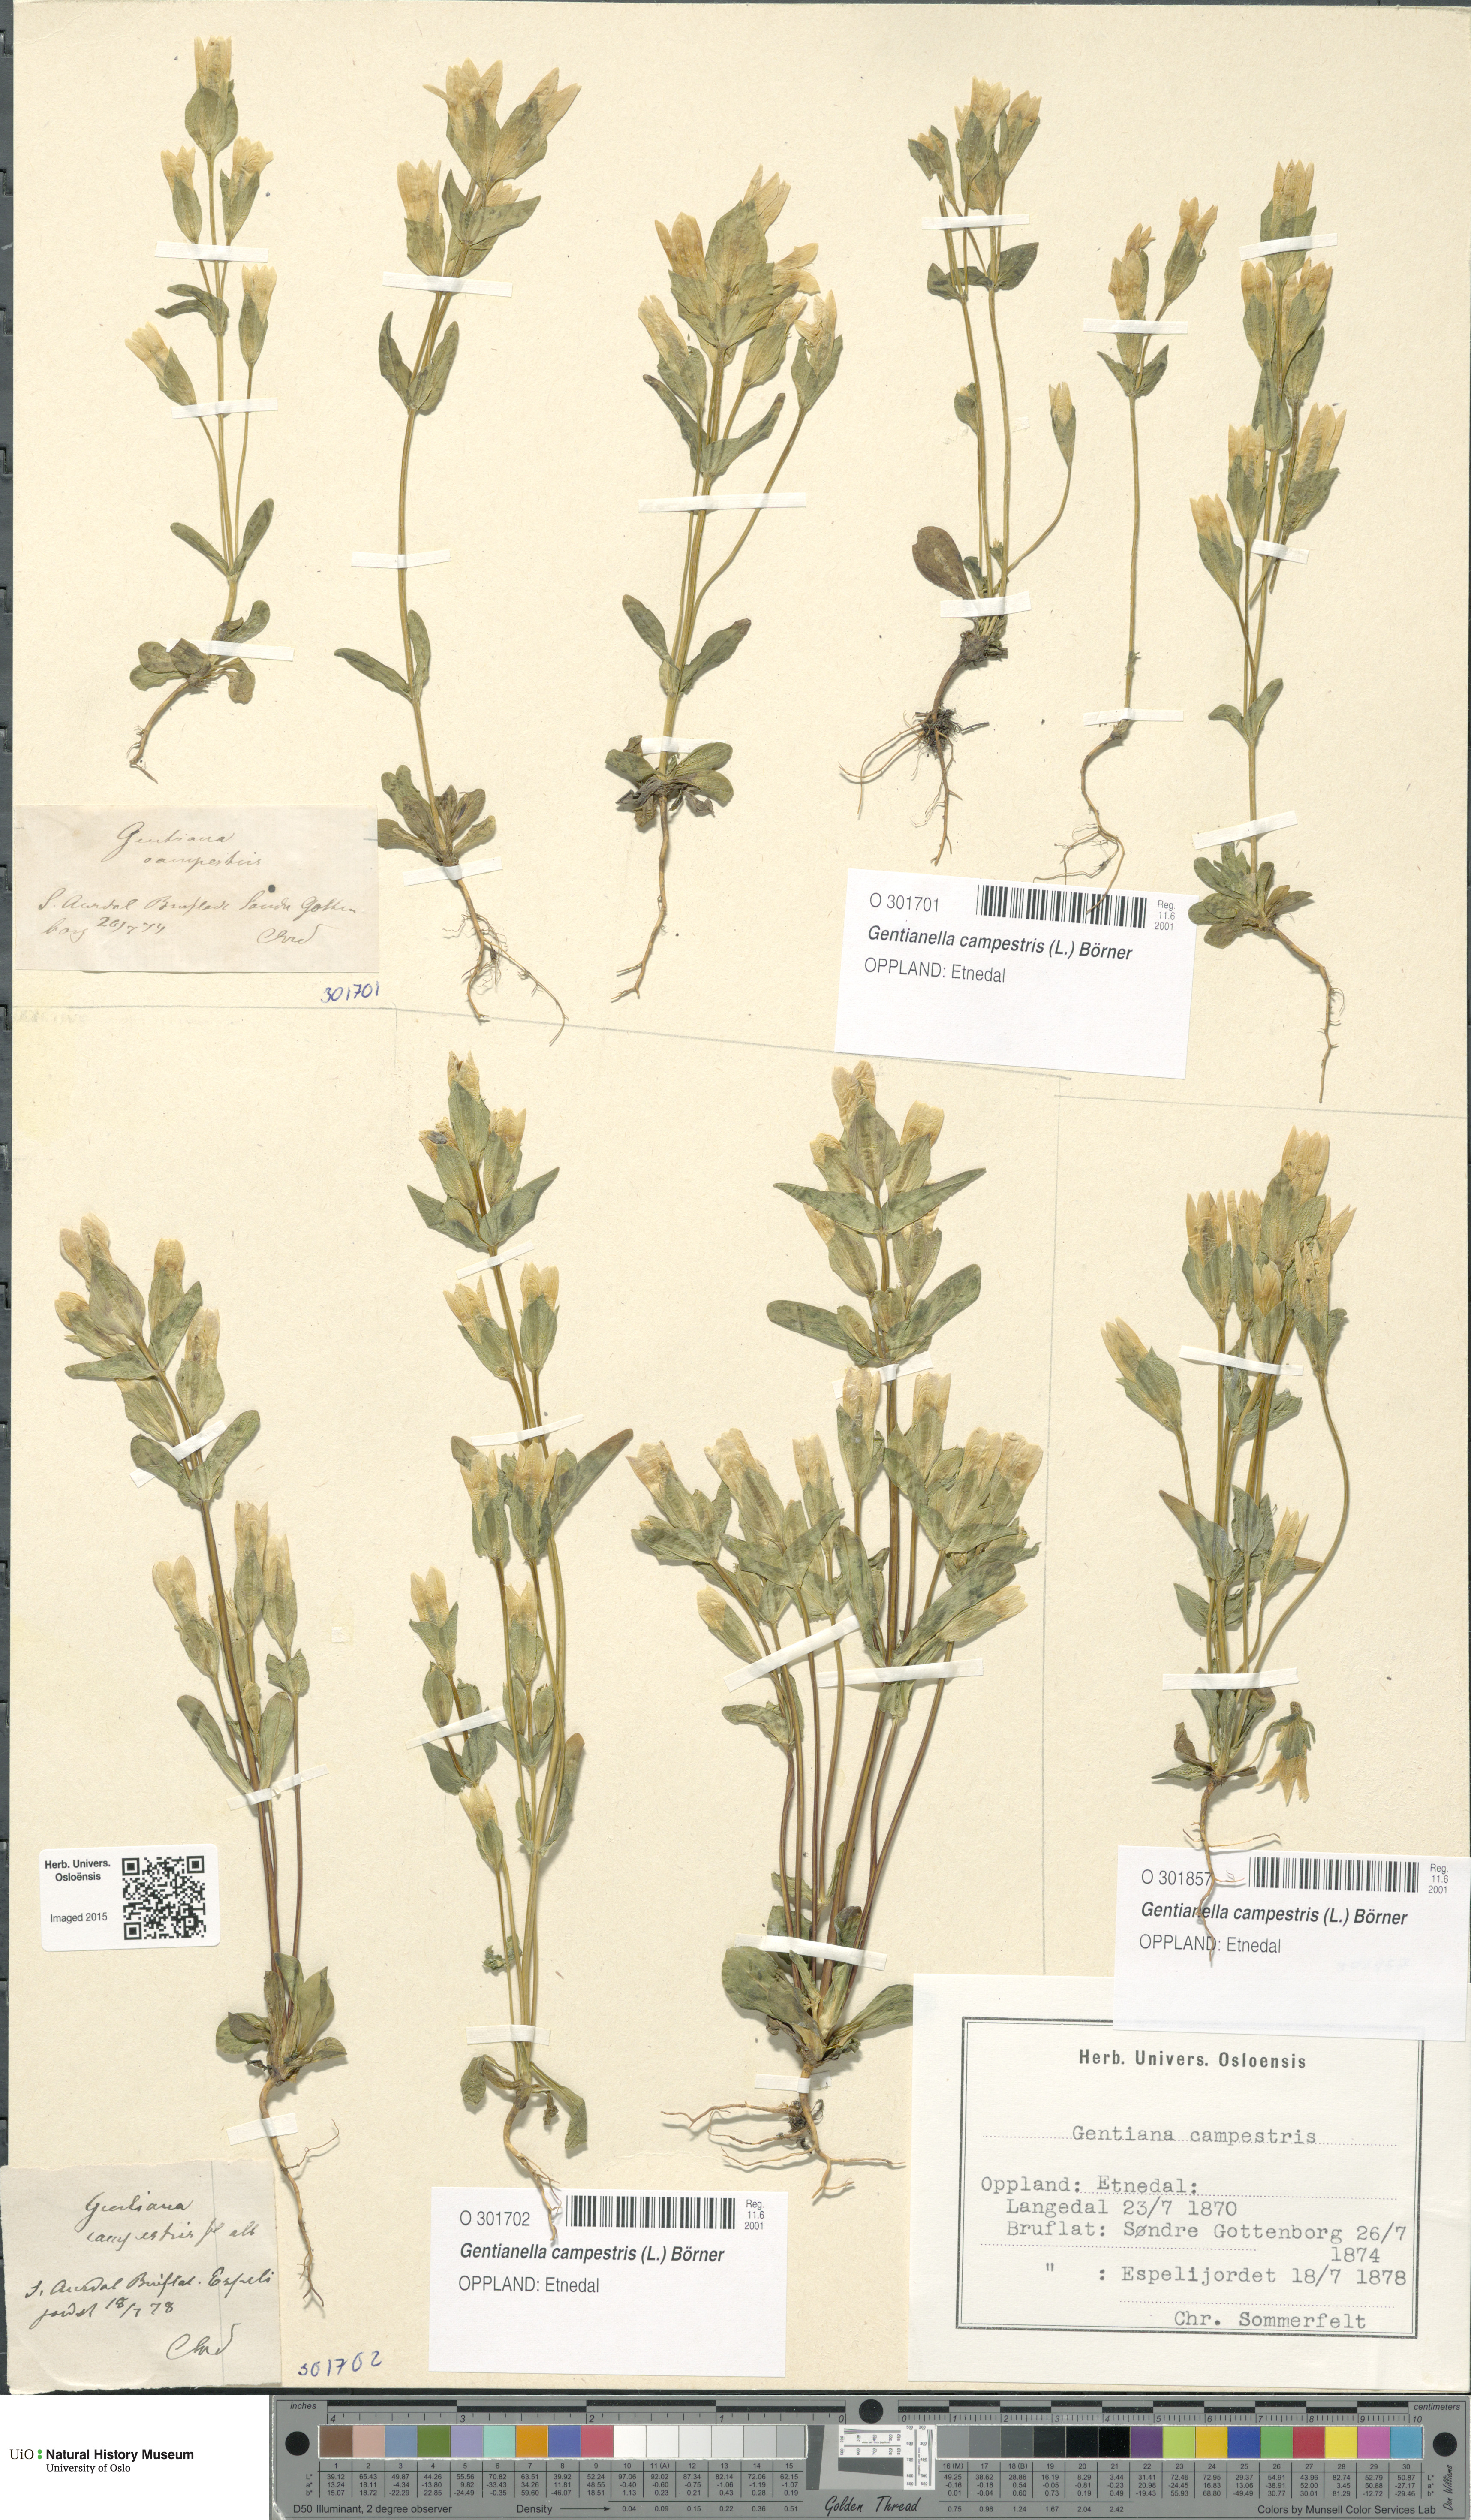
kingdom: Plantae
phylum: Tracheophyta
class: Magnoliopsida
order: Gentianales
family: Gentianaceae
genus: Gentianella
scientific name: Gentianella campestris
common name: Field gentian
